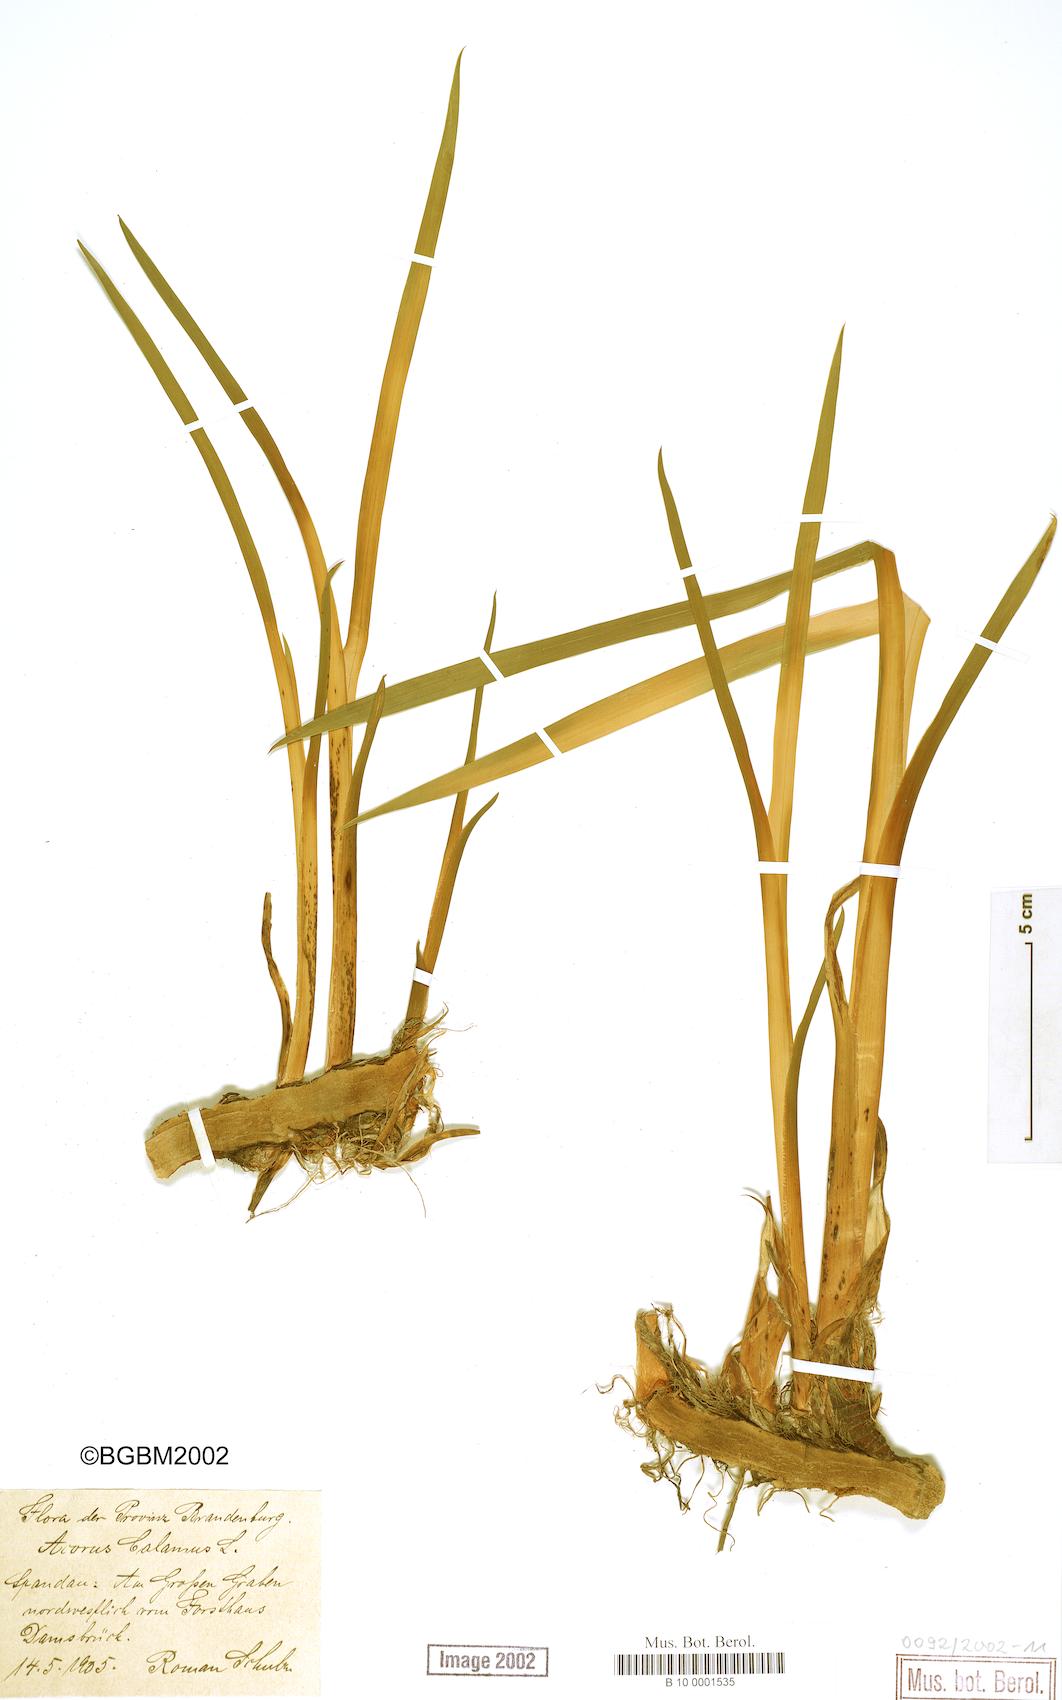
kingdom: Plantae
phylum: Tracheophyta
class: Liliopsida
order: Acorales
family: Acoraceae
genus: Acorus
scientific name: Acorus calamus
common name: Sweet-flag
